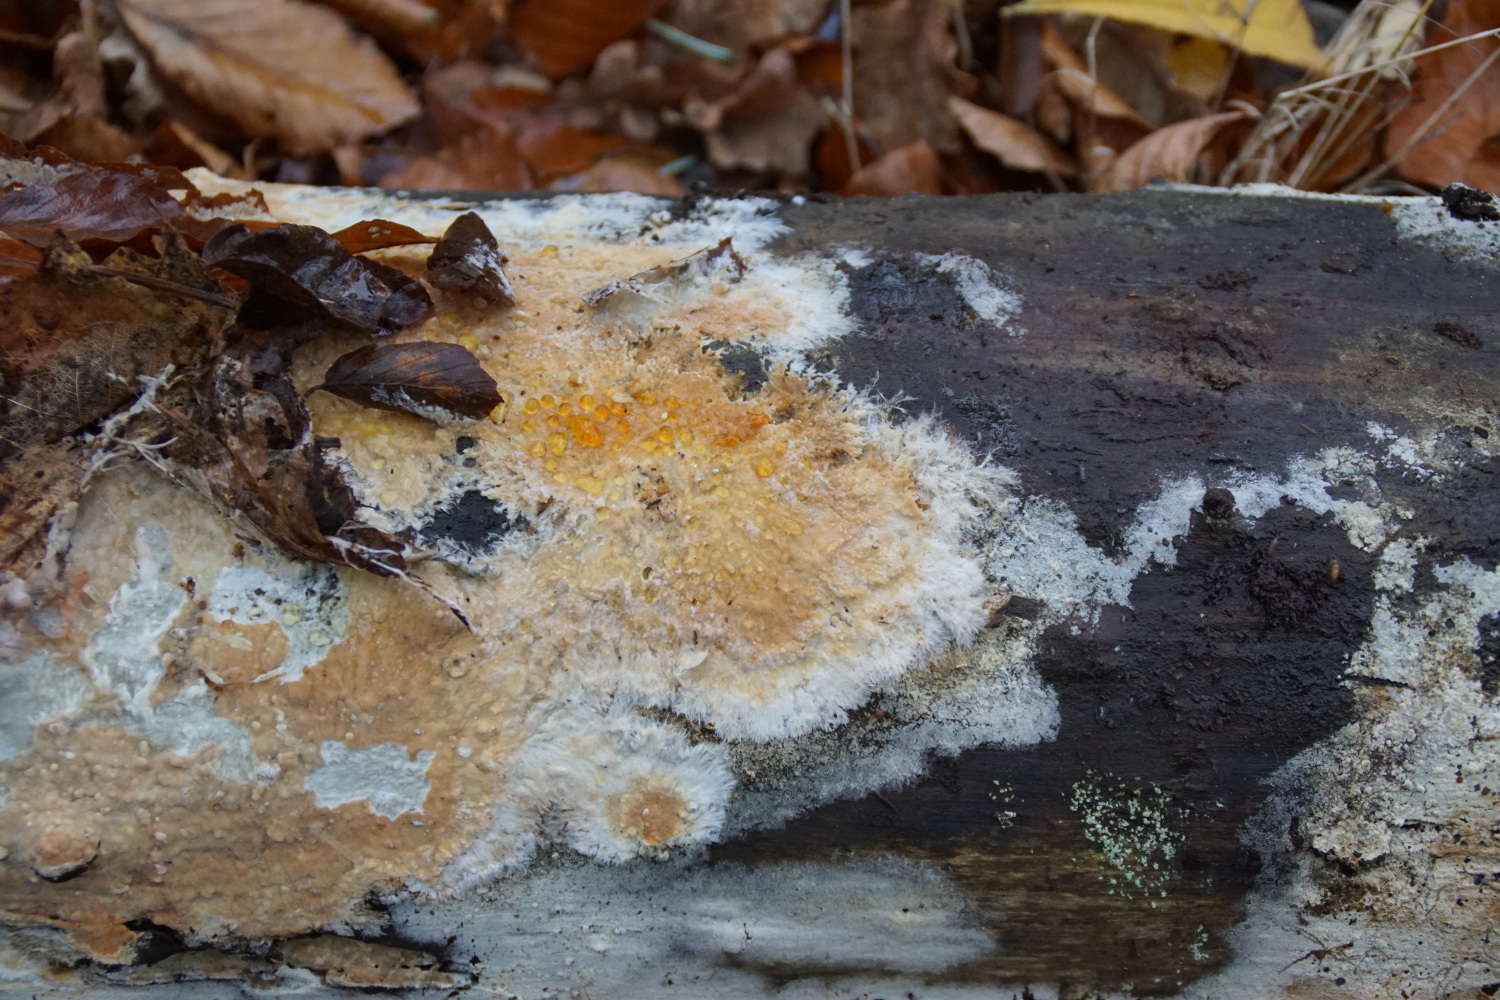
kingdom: Fungi
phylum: Basidiomycota
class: Agaricomycetes
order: Polyporales
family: Phanerochaetaceae
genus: Phanerochaete
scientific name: Phanerochaete
